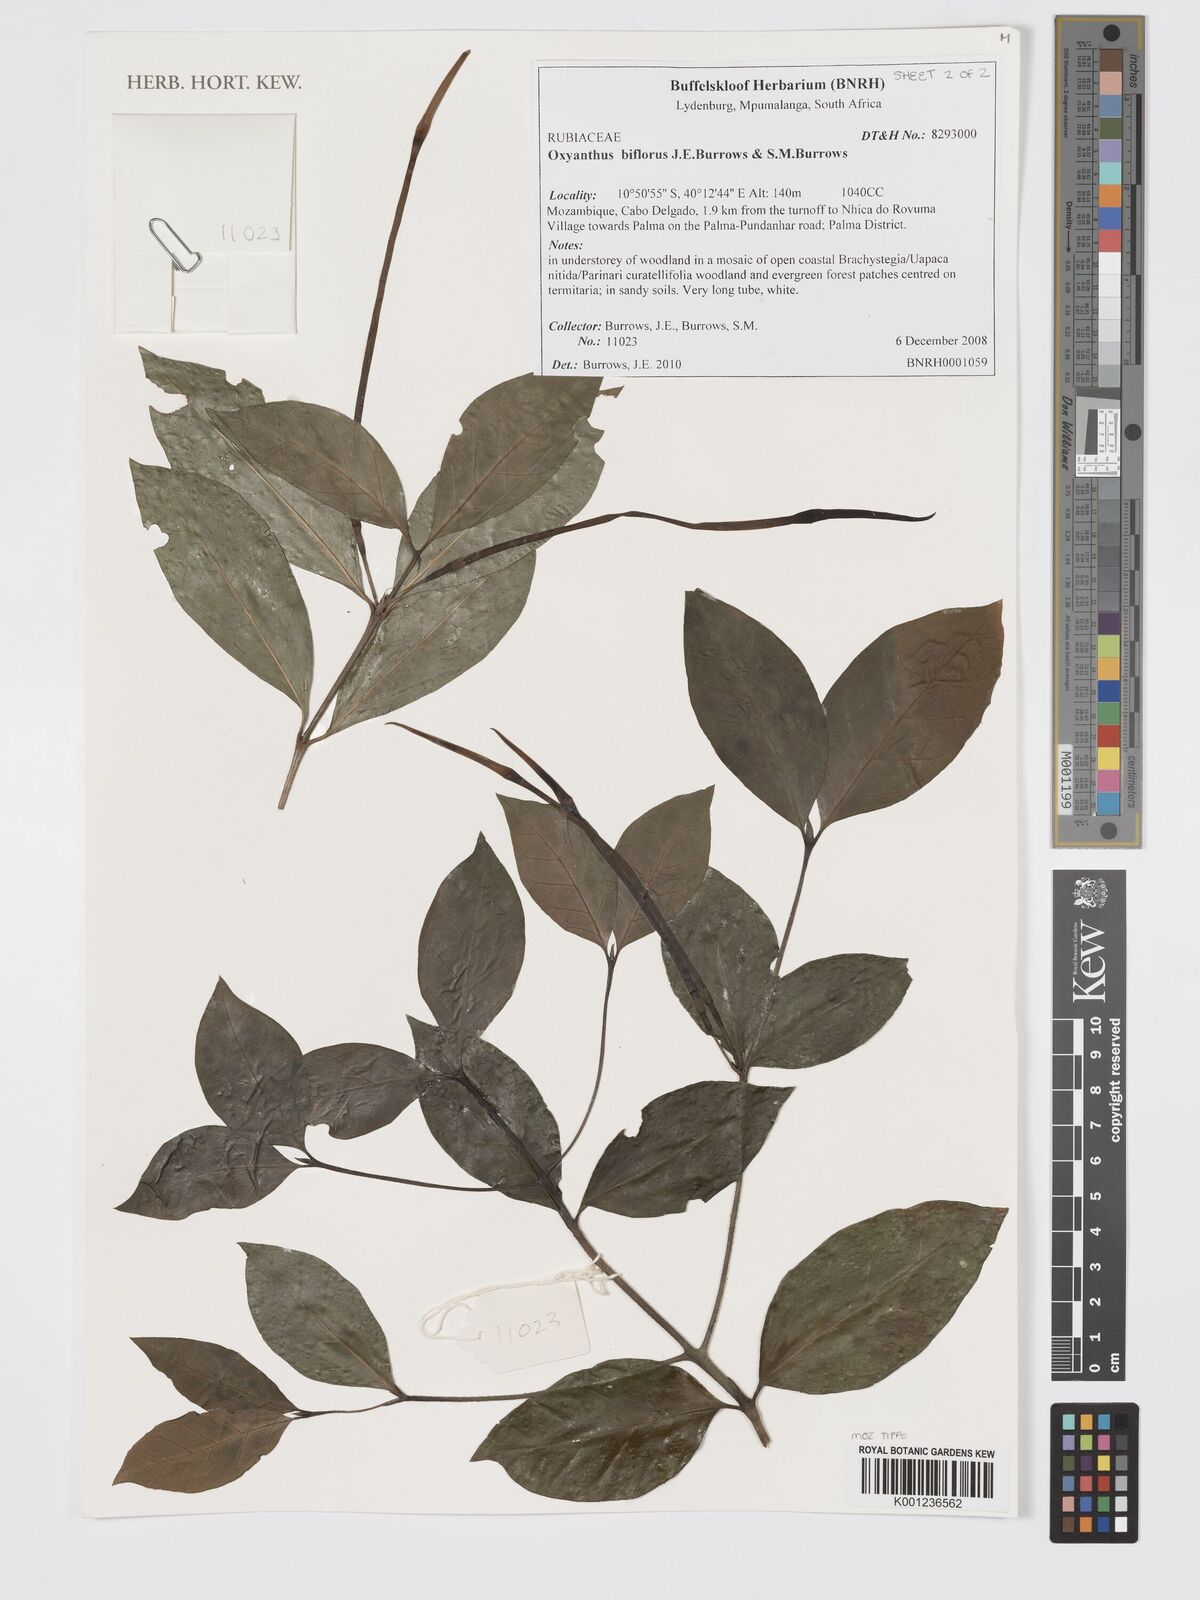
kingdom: Plantae
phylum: Tracheophyta
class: Magnoliopsida
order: Gentianales
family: Rubiaceae
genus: Oxyanthus
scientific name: Oxyanthus biflorus
